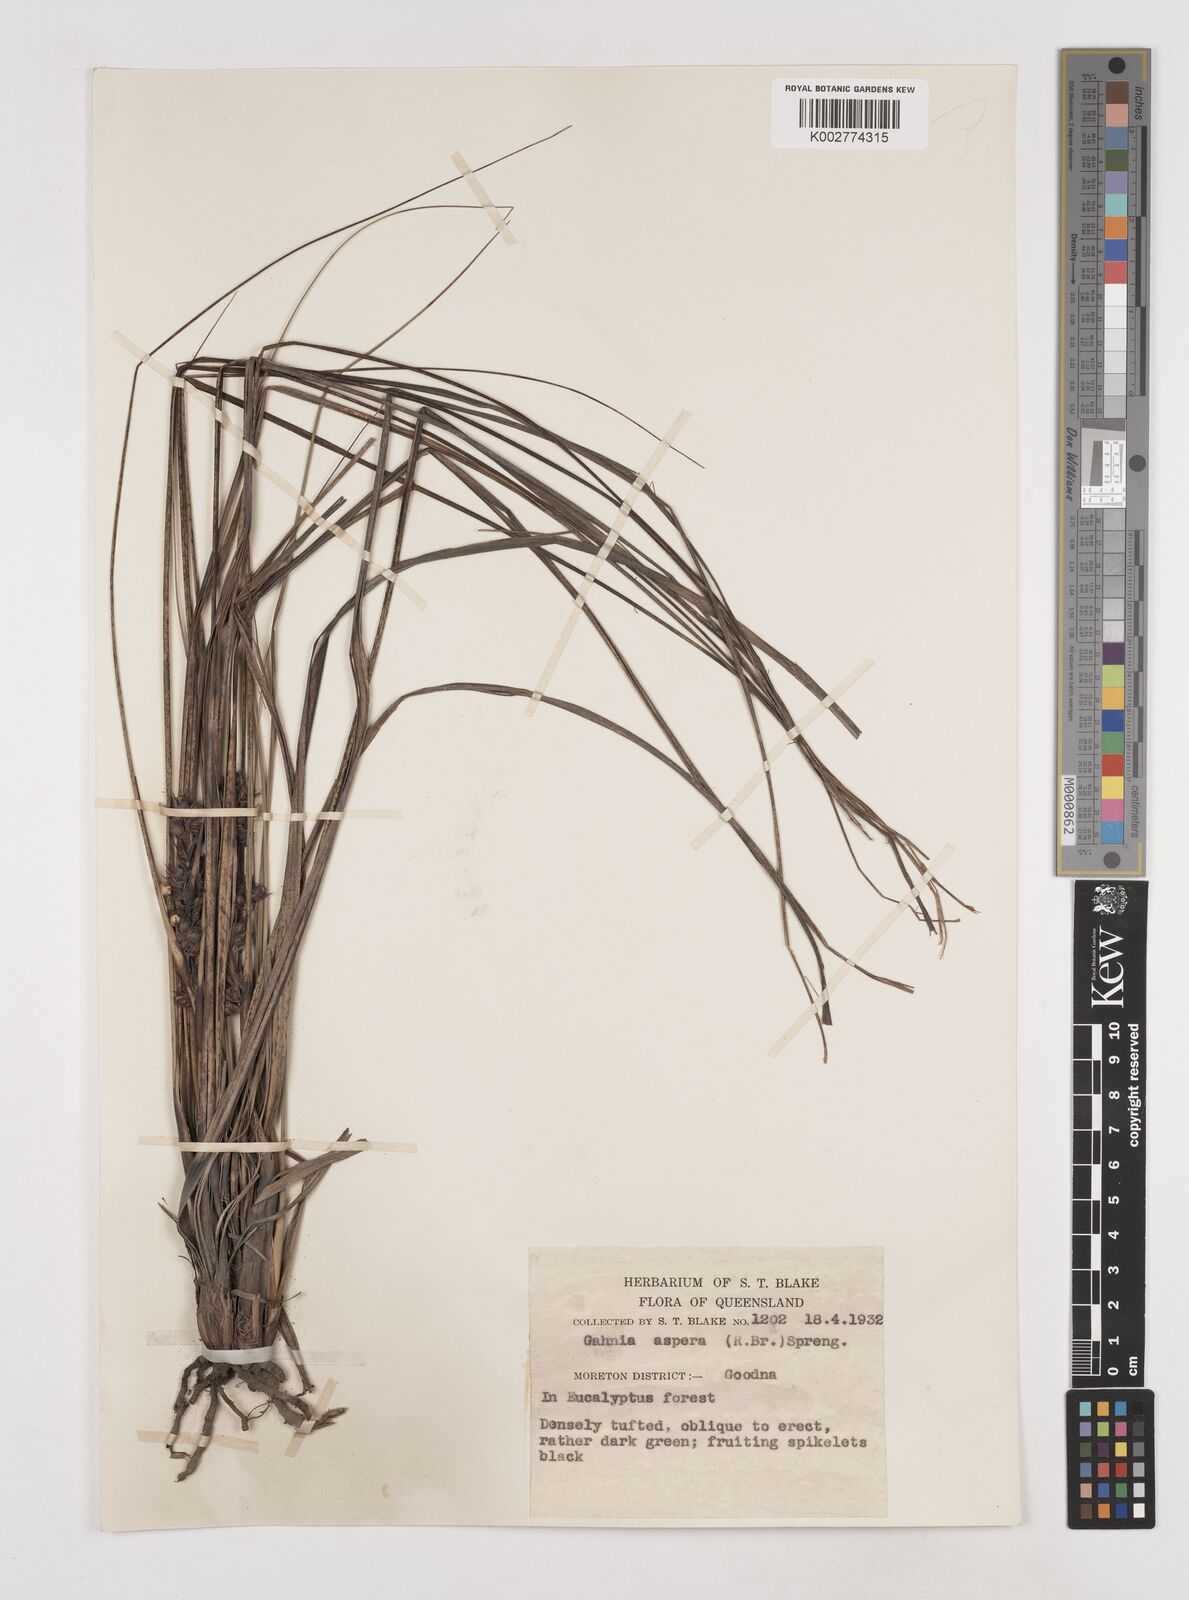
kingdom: Plantae
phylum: Tracheophyta
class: Liliopsida
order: Poales
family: Cyperaceae
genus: Gahnia
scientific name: Gahnia aspera
